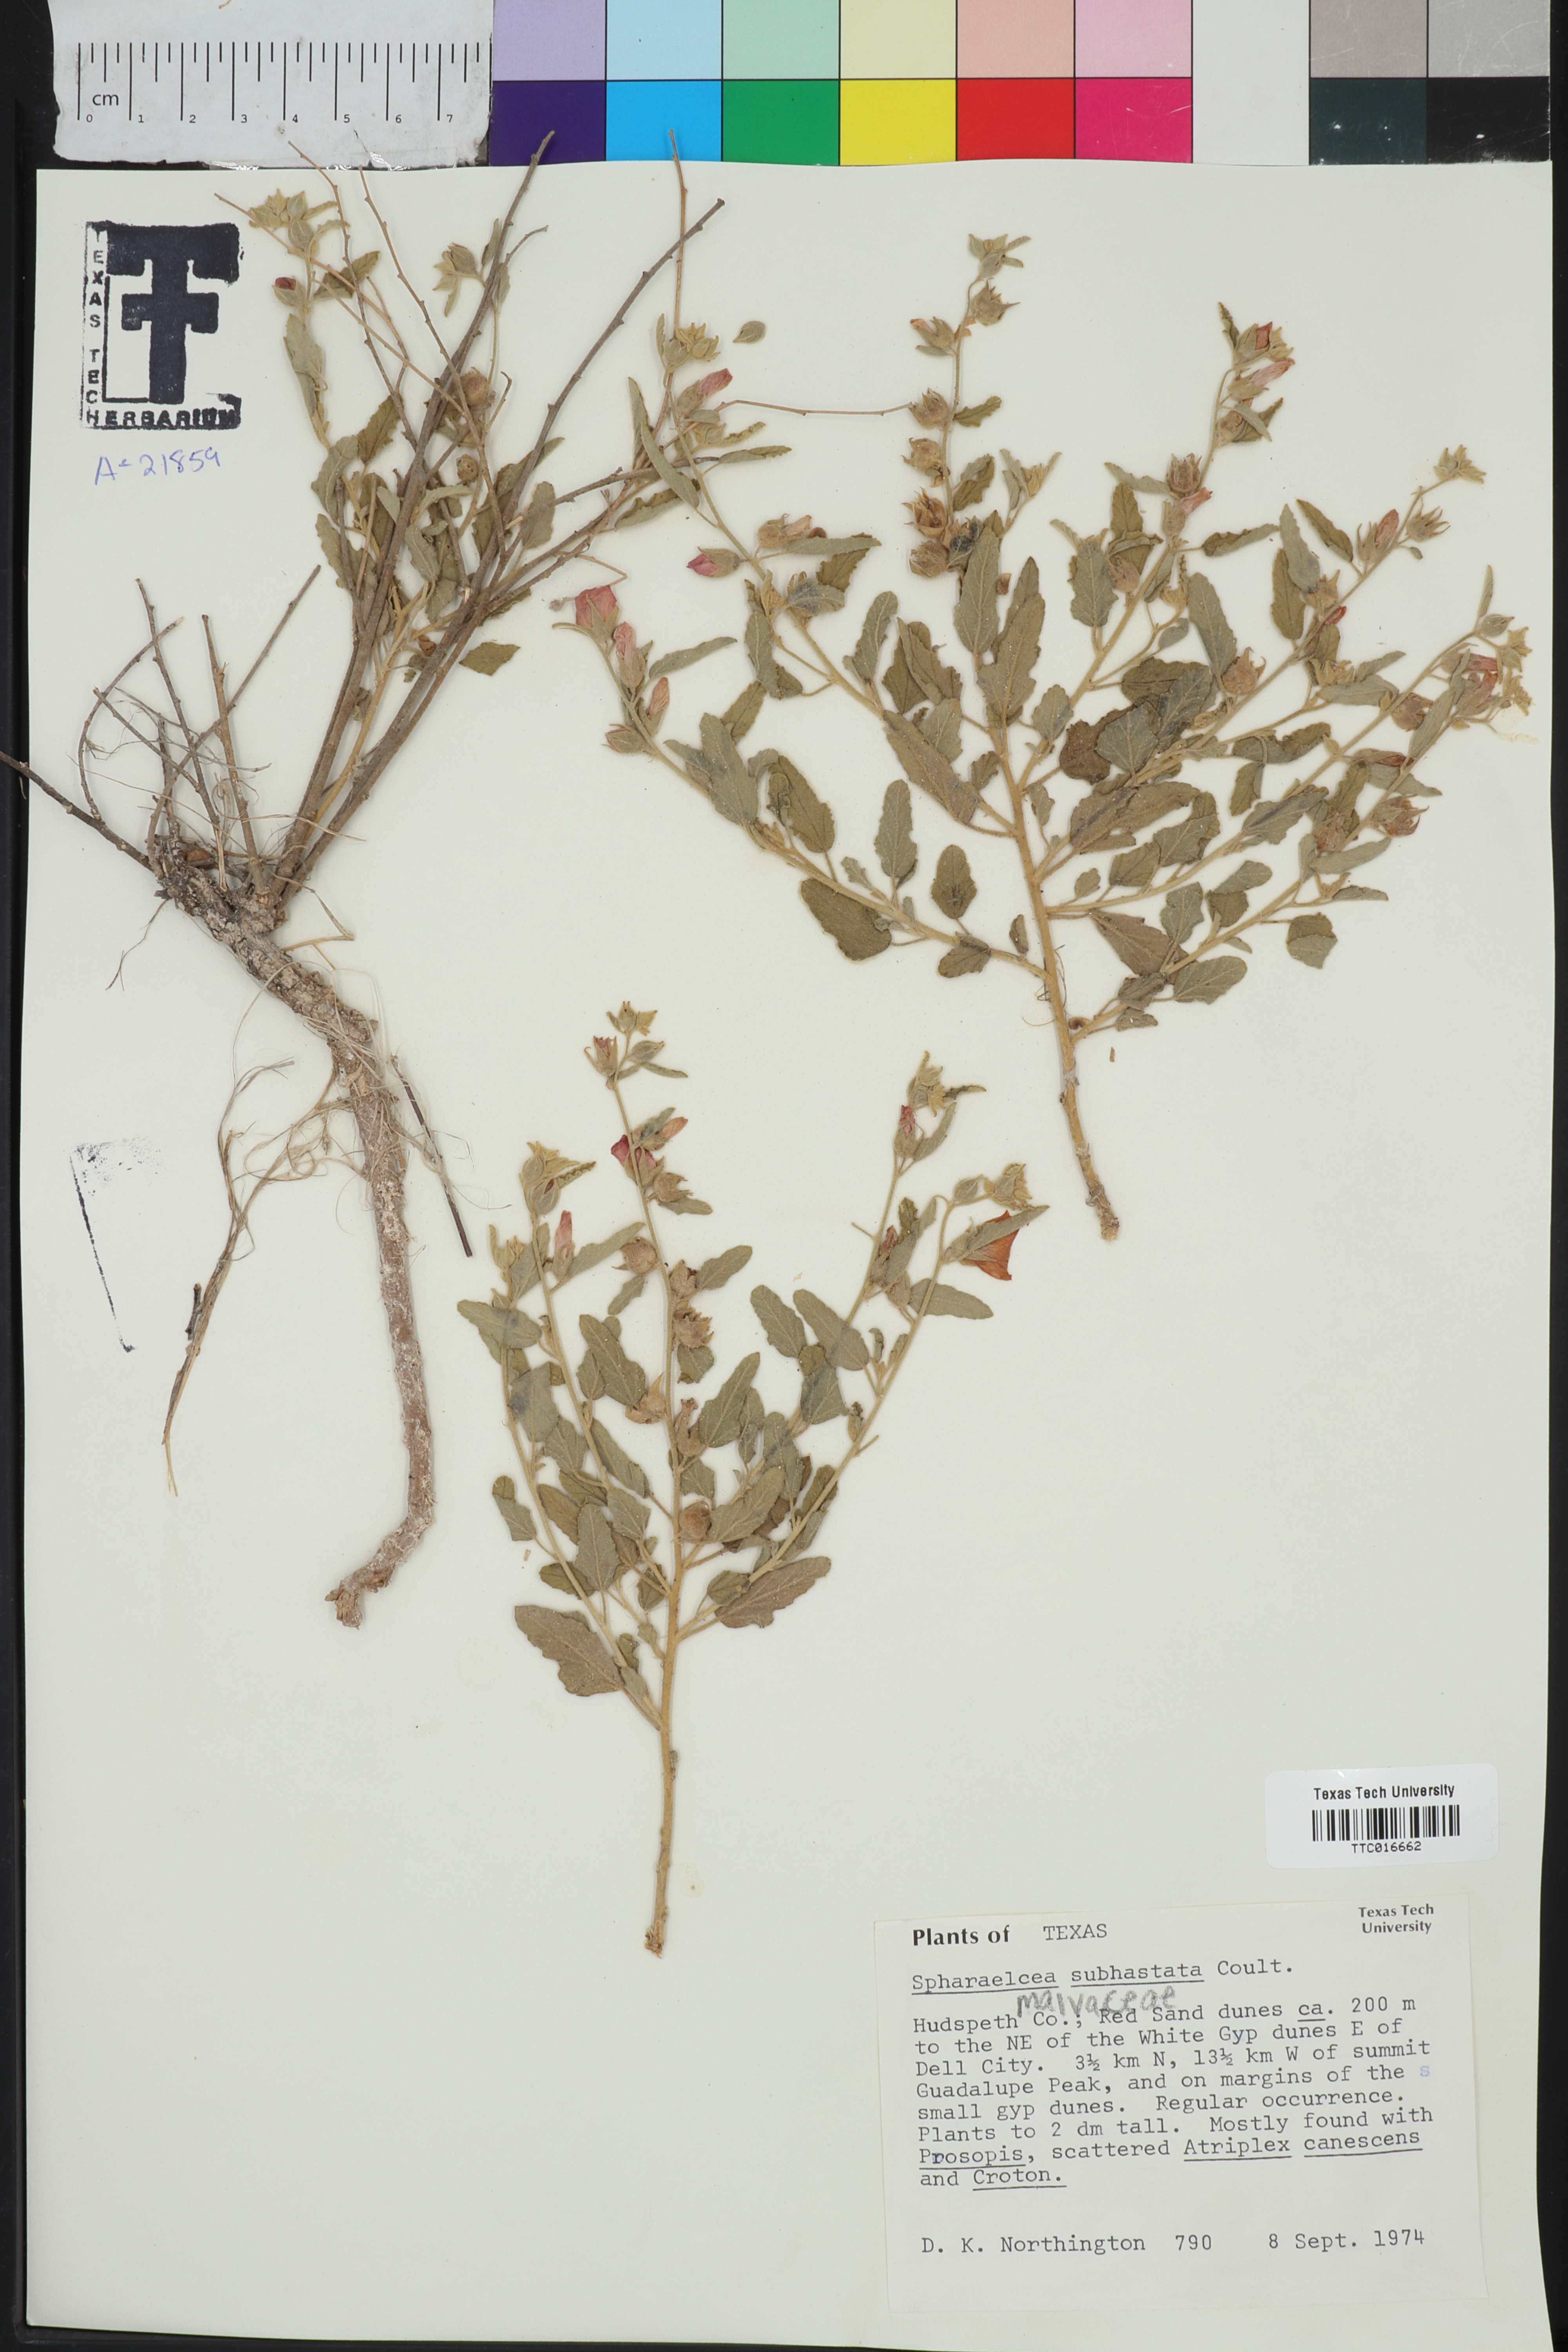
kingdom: Plantae
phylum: Tracheophyta
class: Magnoliopsida
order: Malvales
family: Malvaceae
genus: Sphaeralcea
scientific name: Sphaeralcea hastulata
